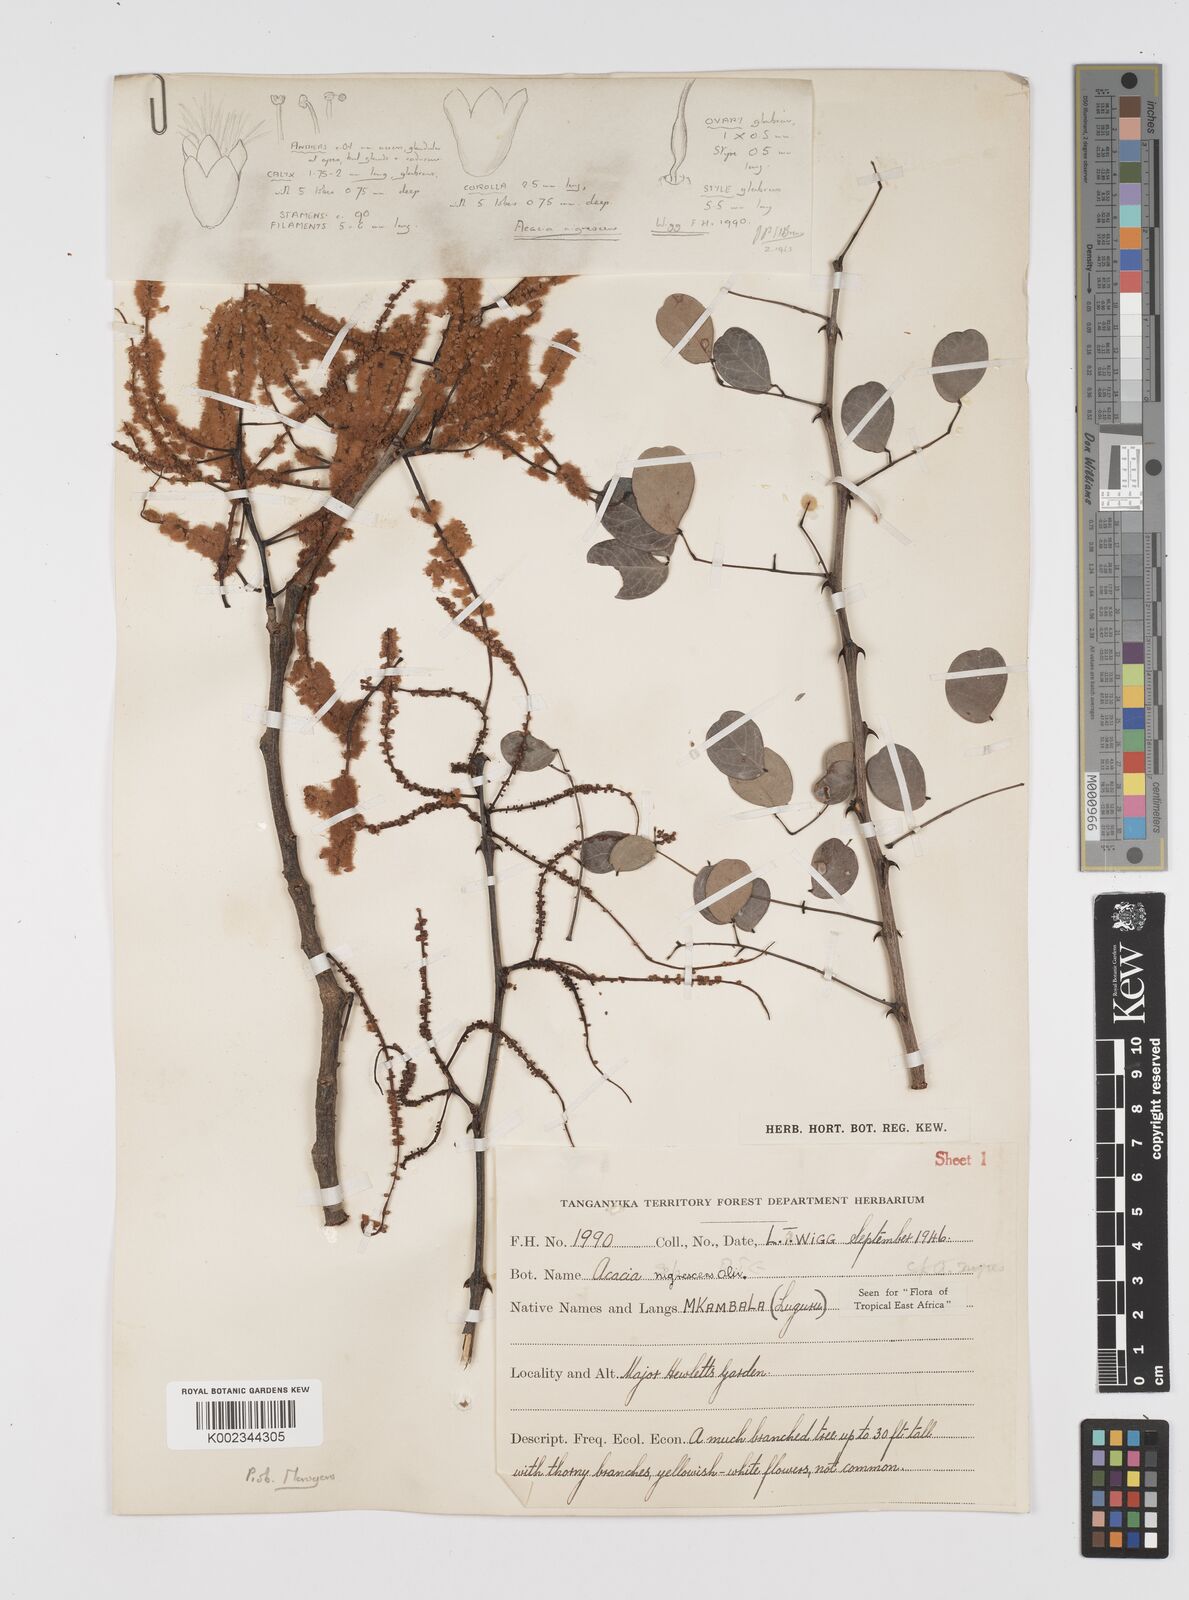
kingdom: Plantae
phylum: Tracheophyta
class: Magnoliopsida
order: Fabales
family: Fabaceae
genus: Senegalia
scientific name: Senegalia nigrescens
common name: Knobthorn
